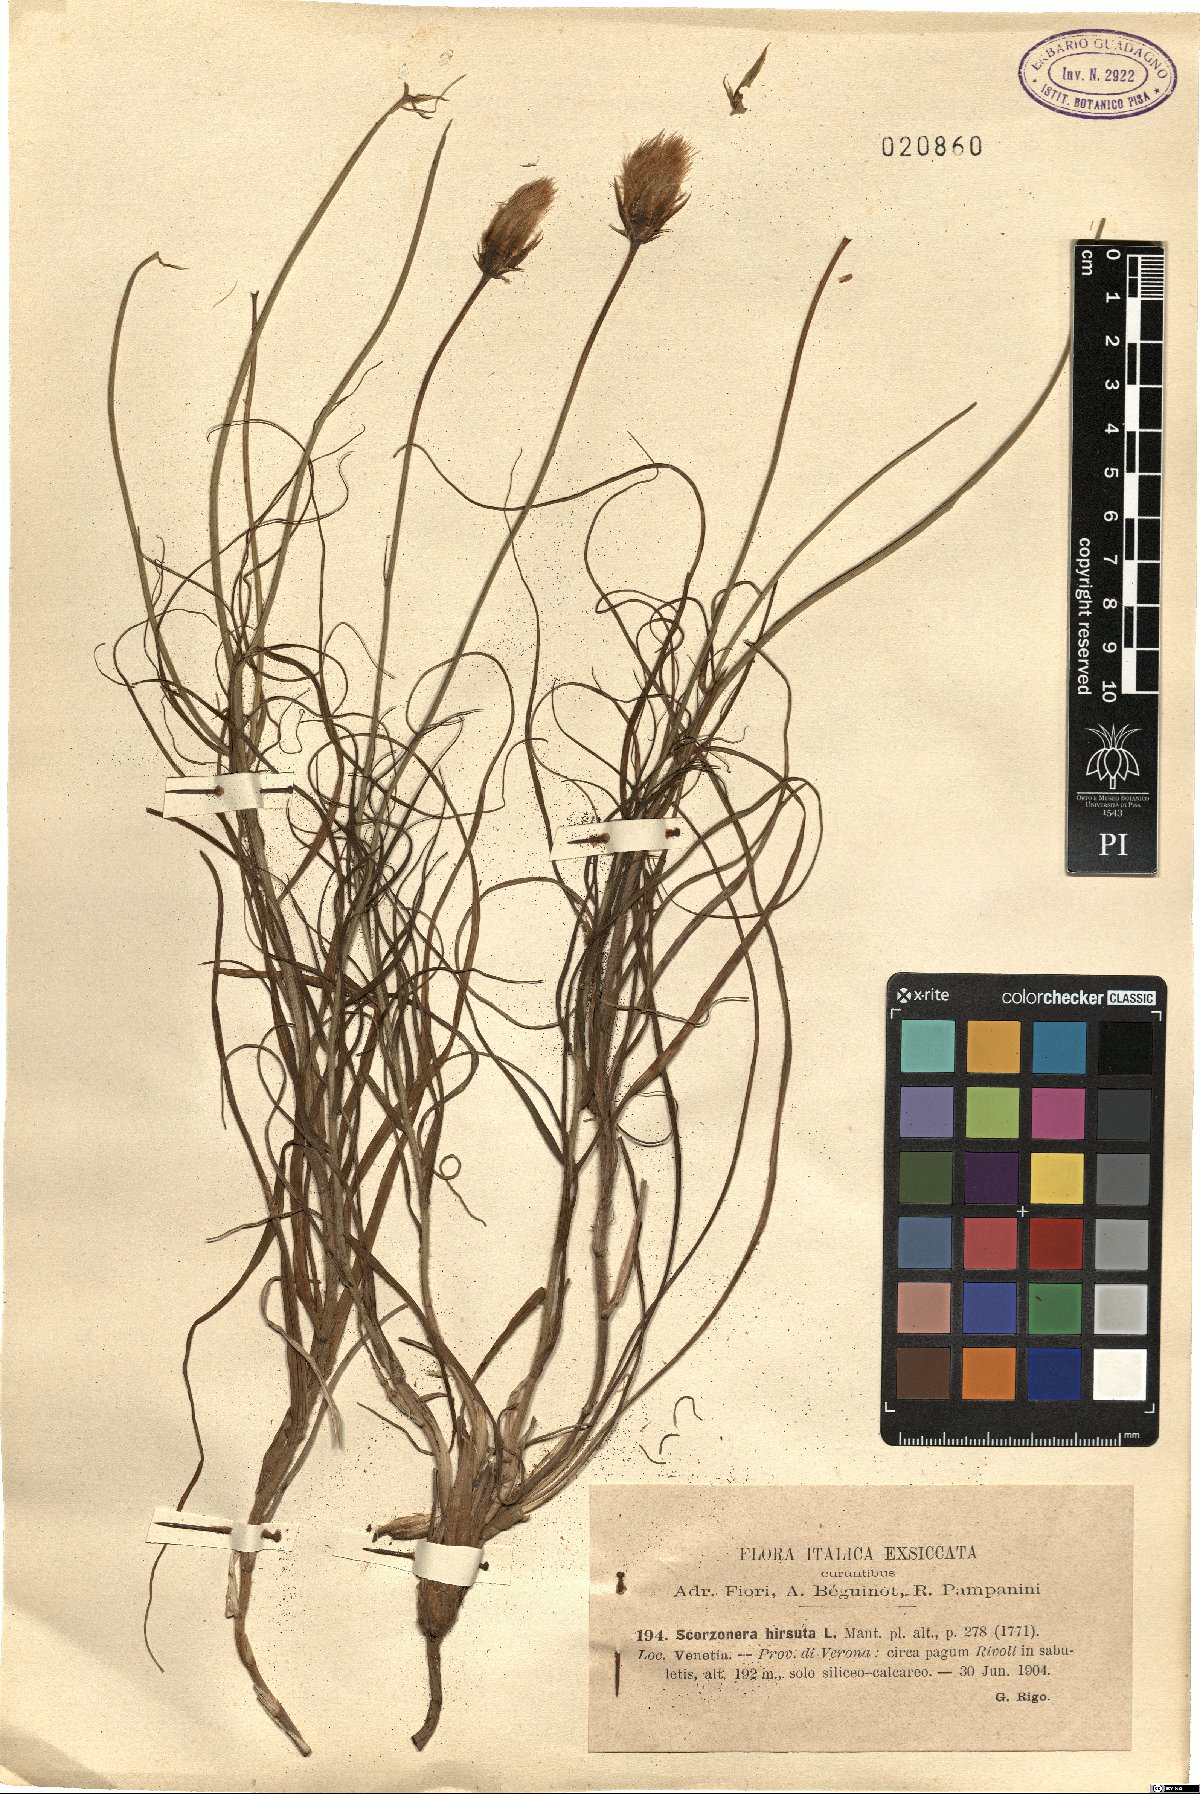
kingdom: Plantae
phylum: Tracheophyta
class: Magnoliopsida
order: Asterales
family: Asteraceae
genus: Gelasia
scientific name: Gelasia hirsuta
